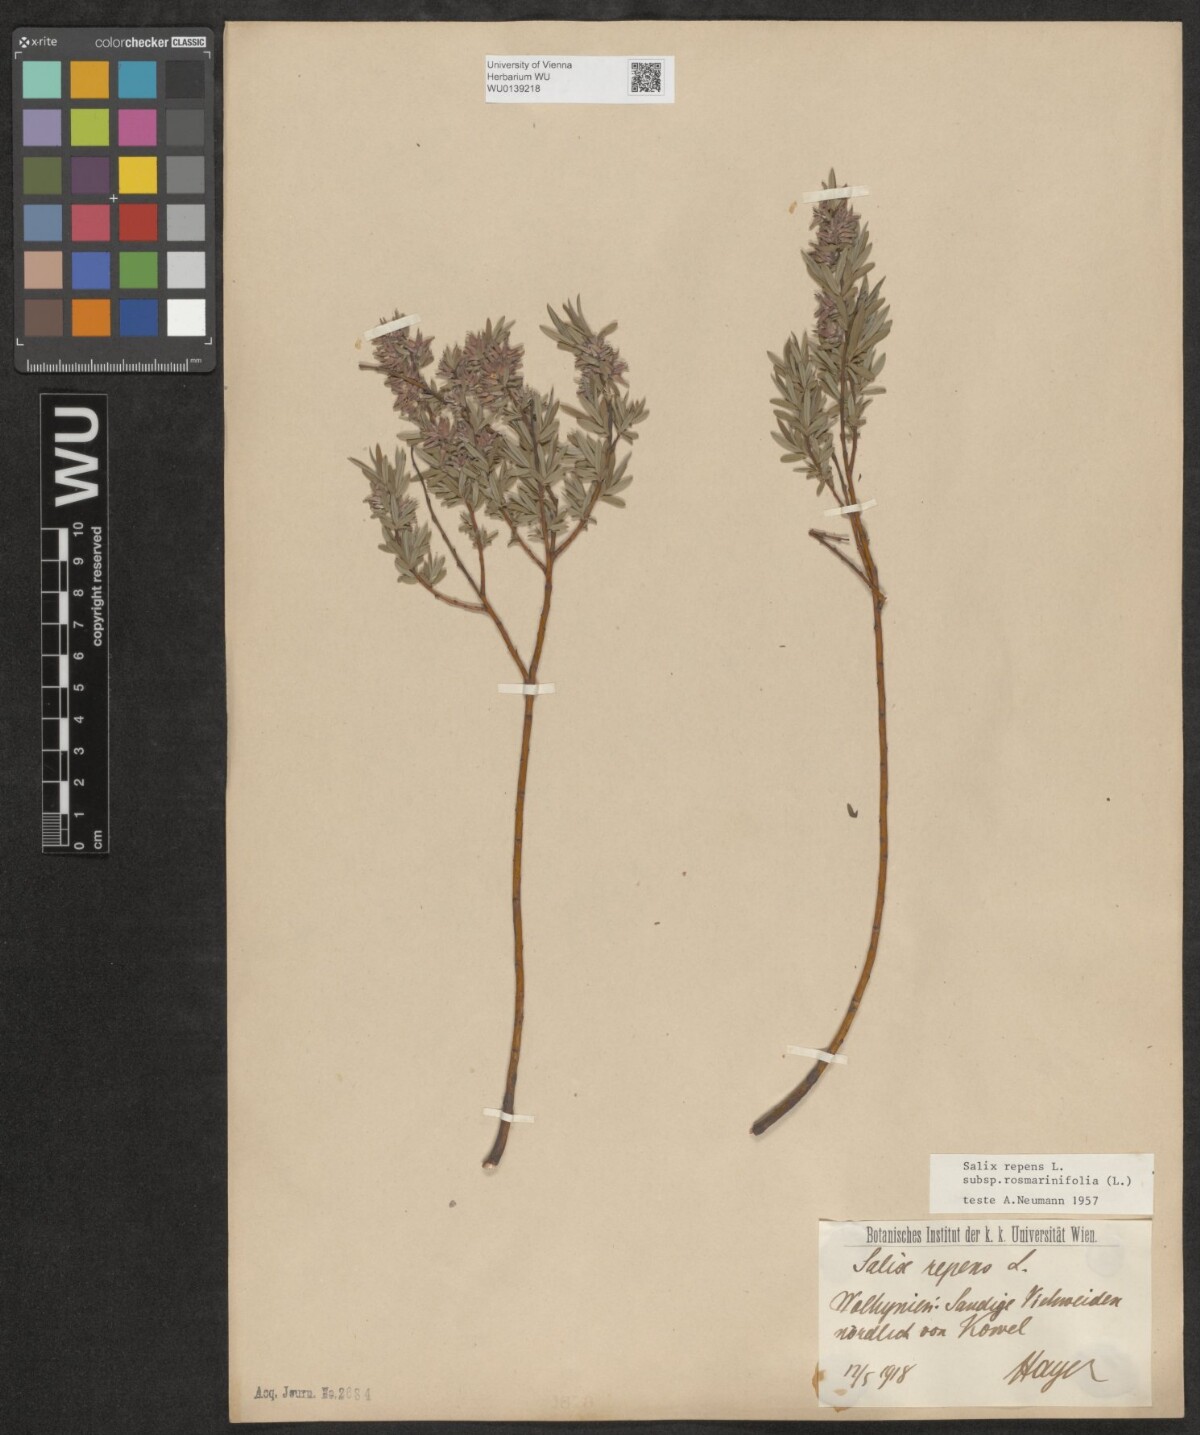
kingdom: Plantae
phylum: Tracheophyta
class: Magnoliopsida
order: Malpighiales
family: Salicaceae
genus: Salix
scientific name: Salix repens
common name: Creeping willow
